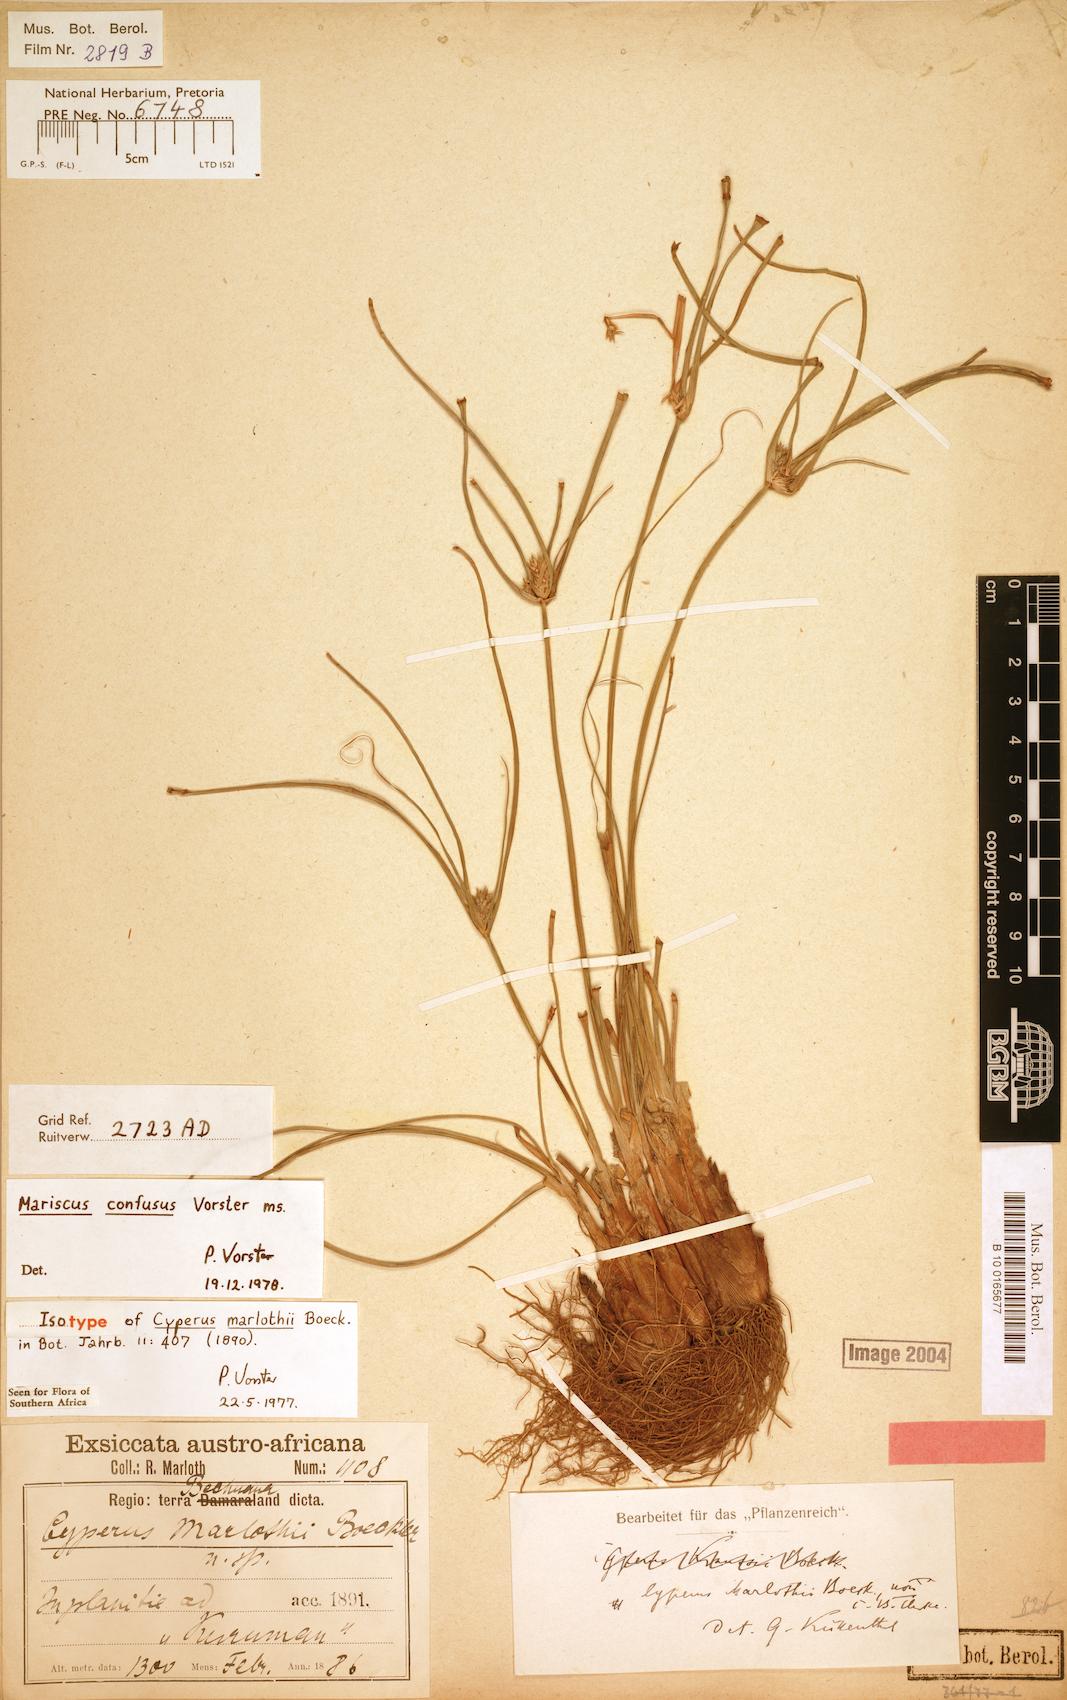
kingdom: Plantae
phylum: Tracheophyta
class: Liliopsida
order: Poales
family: Cyperaceae
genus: Cyperus
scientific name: Cyperus marlothii
